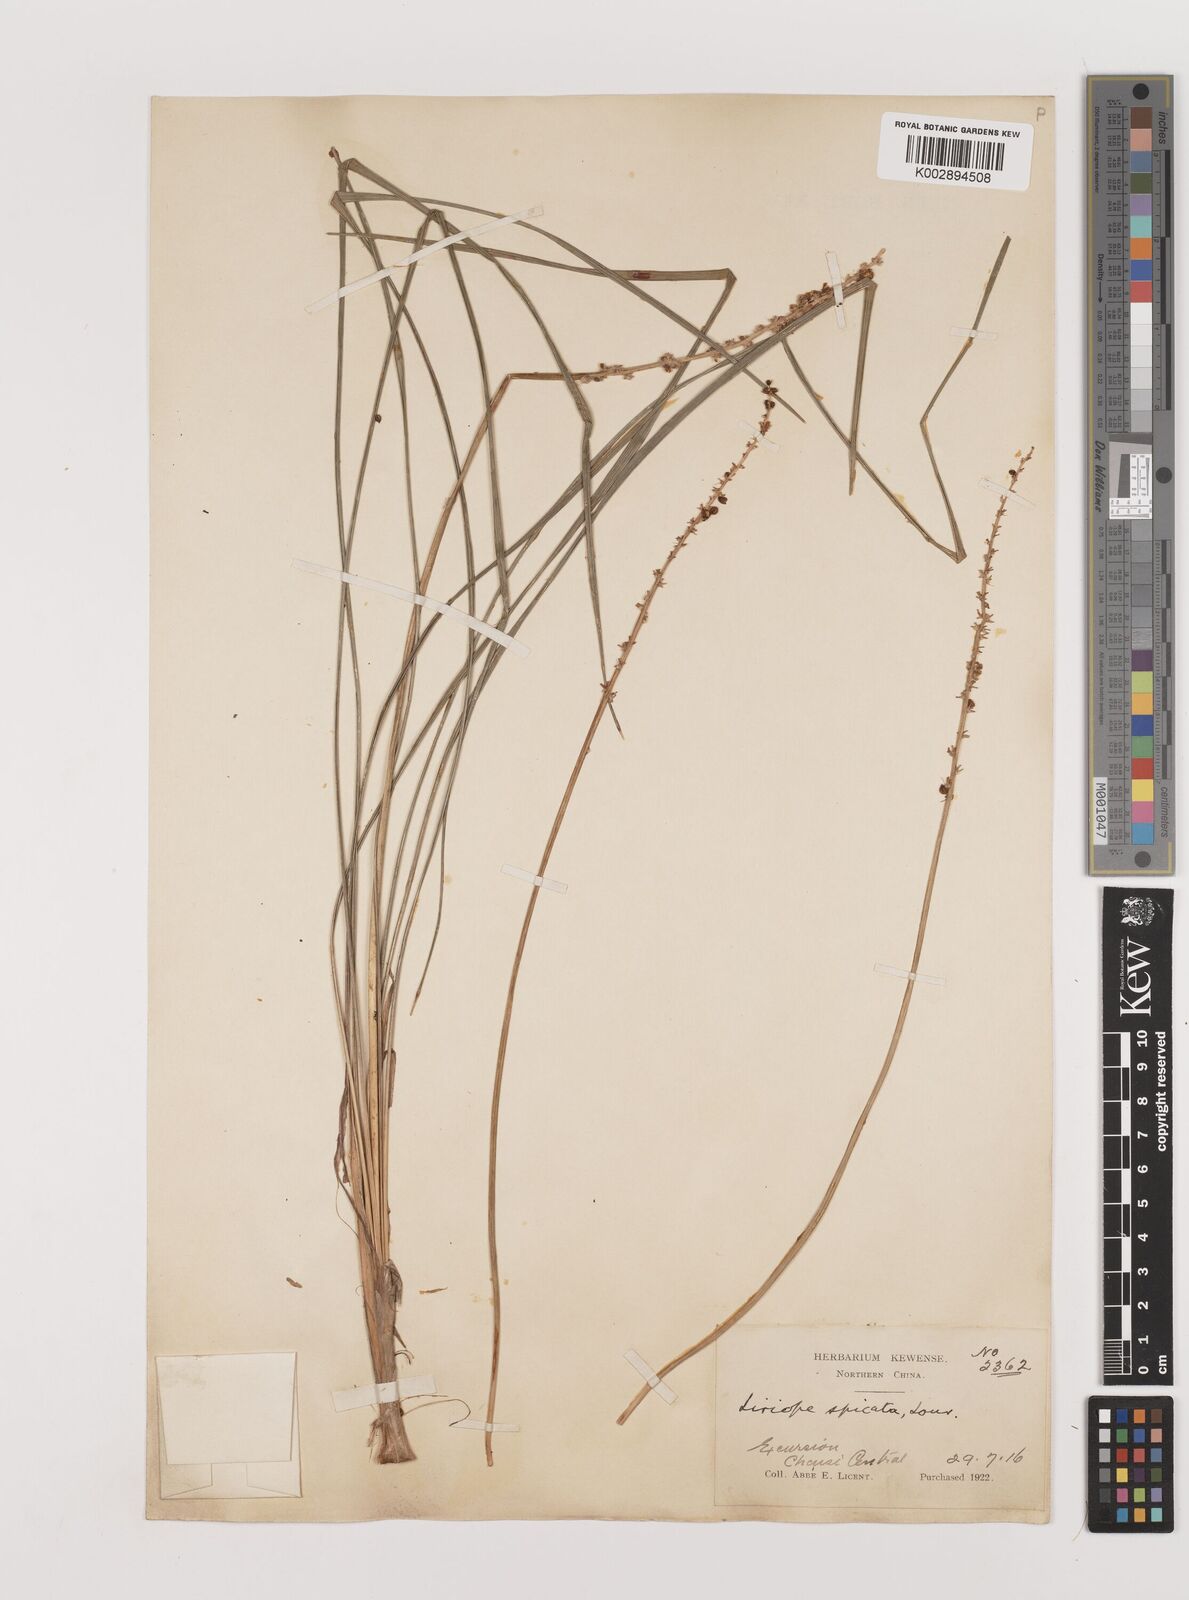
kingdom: Plantae
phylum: Tracheophyta
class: Liliopsida
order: Asparagales
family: Asparagaceae
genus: Liriope
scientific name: Liriope spicata
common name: Creeping liriope
